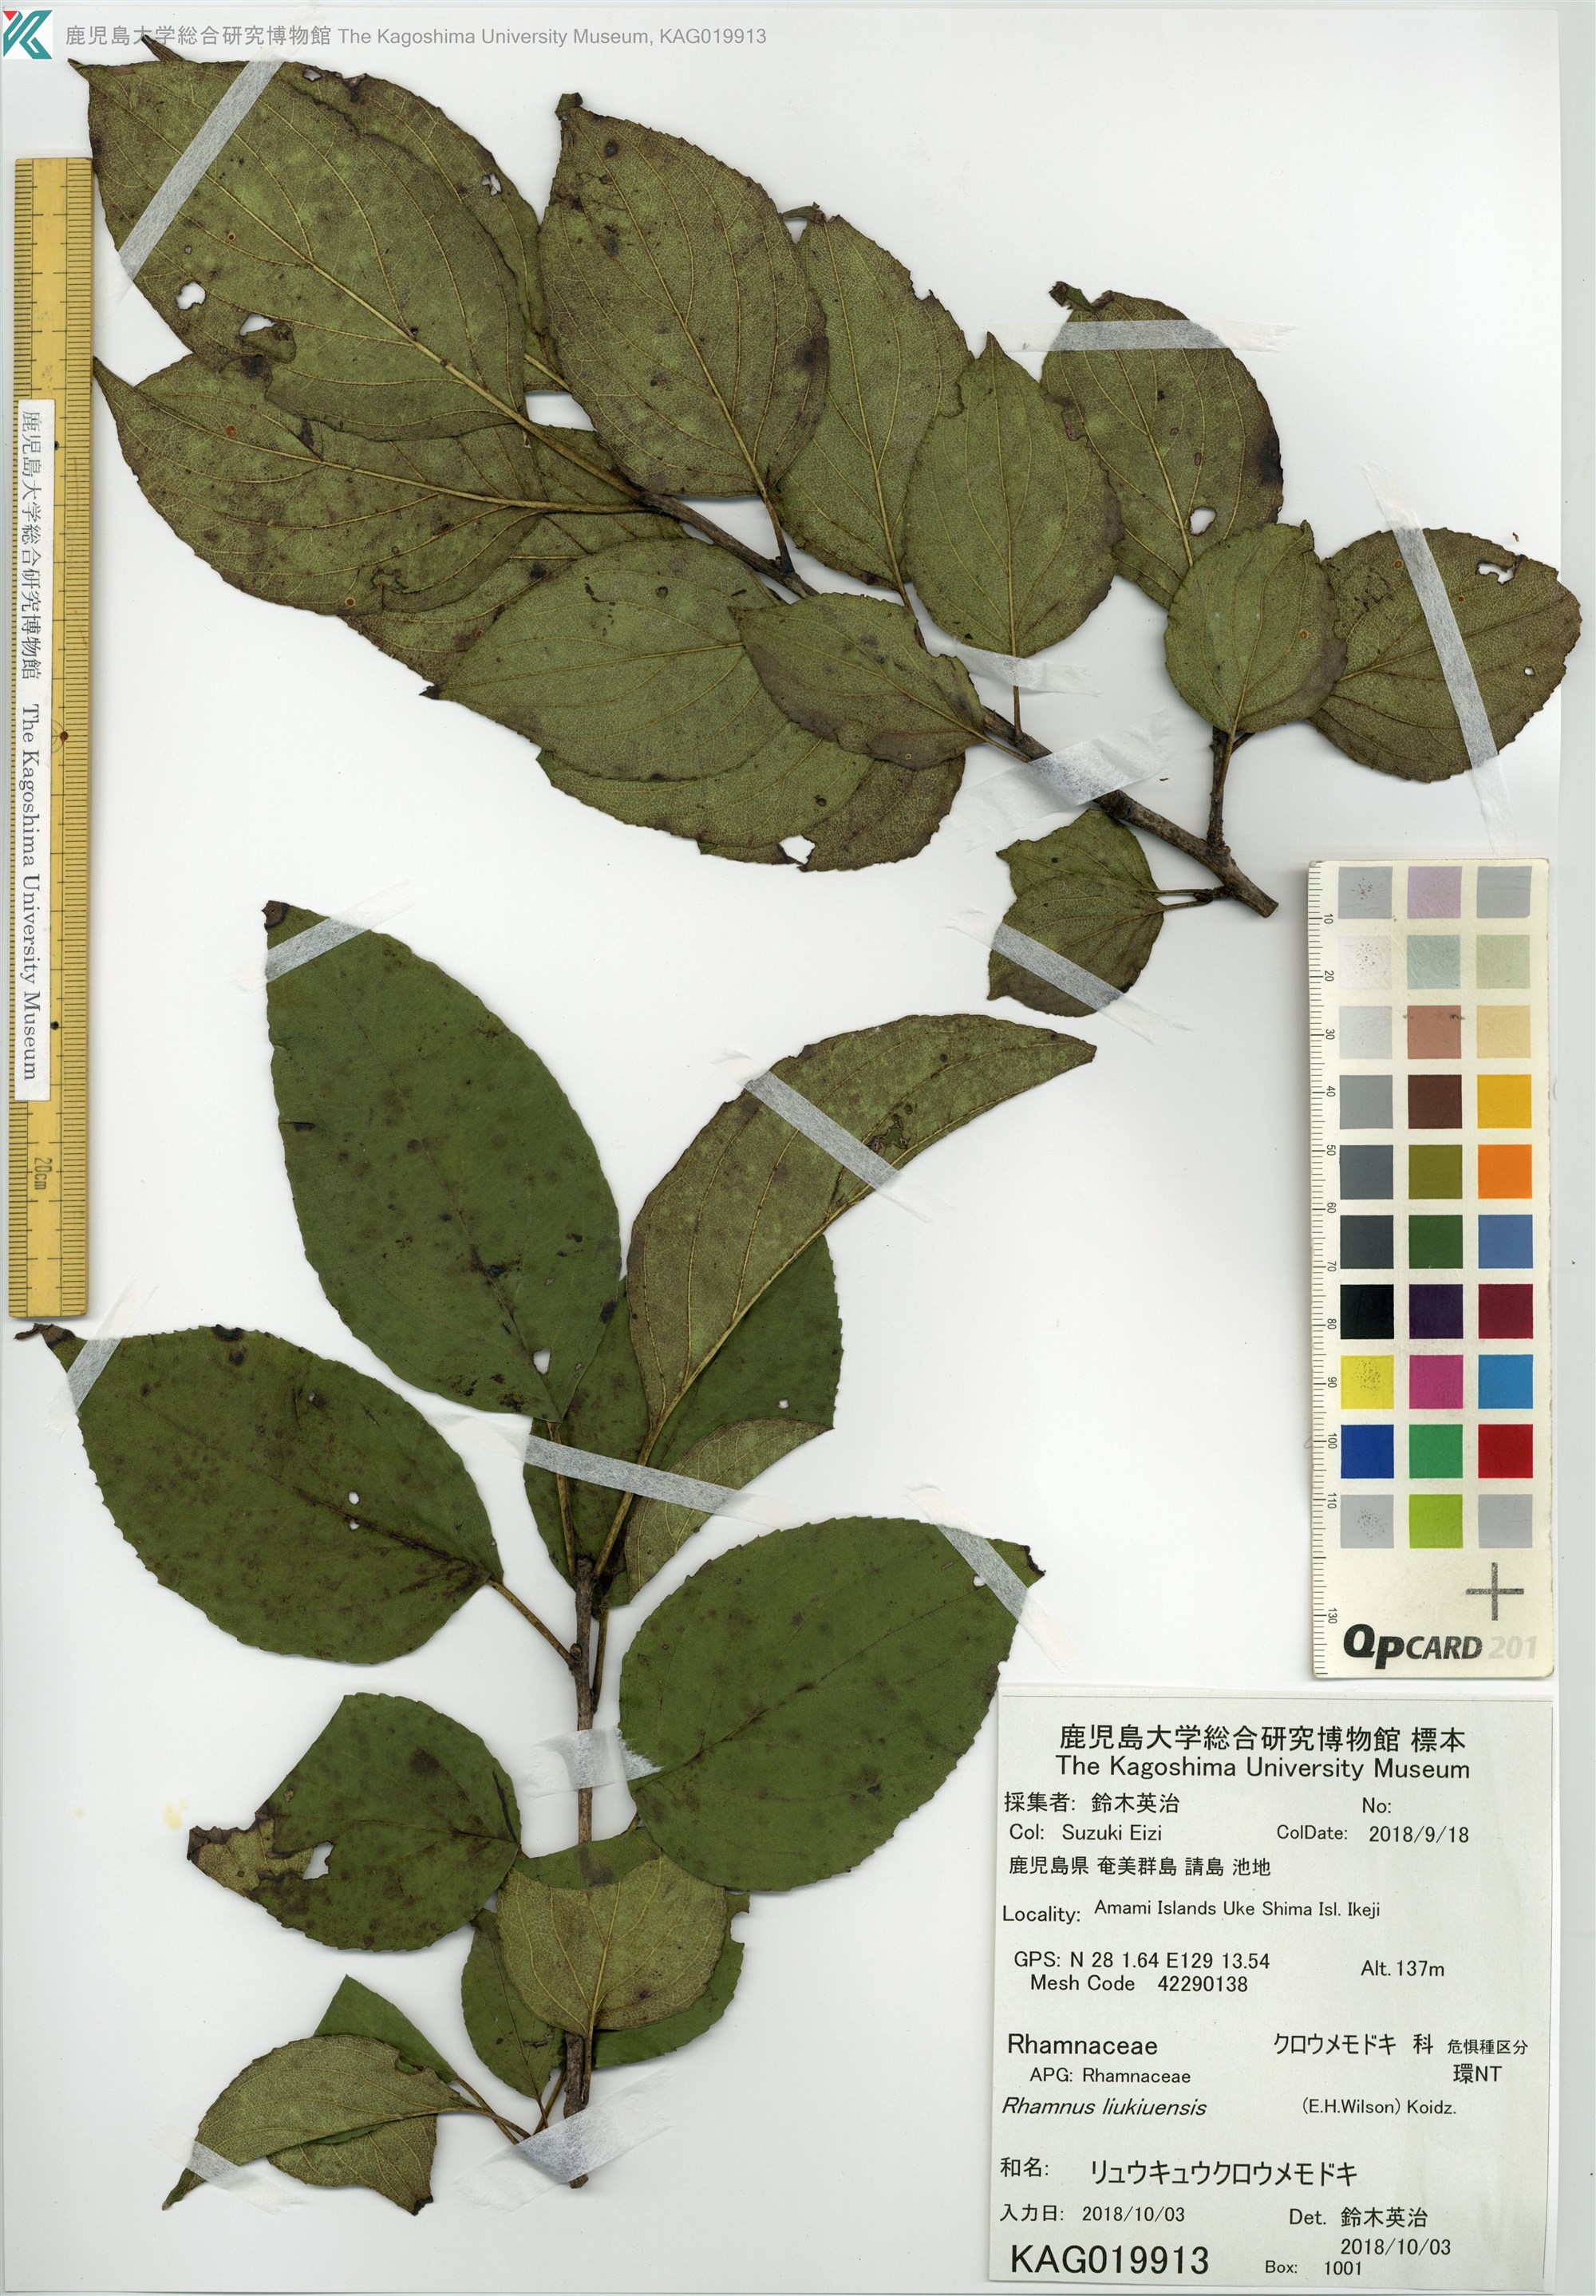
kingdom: Plantae
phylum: Tracheophyta
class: Magnoliopsida
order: Rosales
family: Rhamnaceae
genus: Rhamnus
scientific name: Rhamnus liukiuensis
